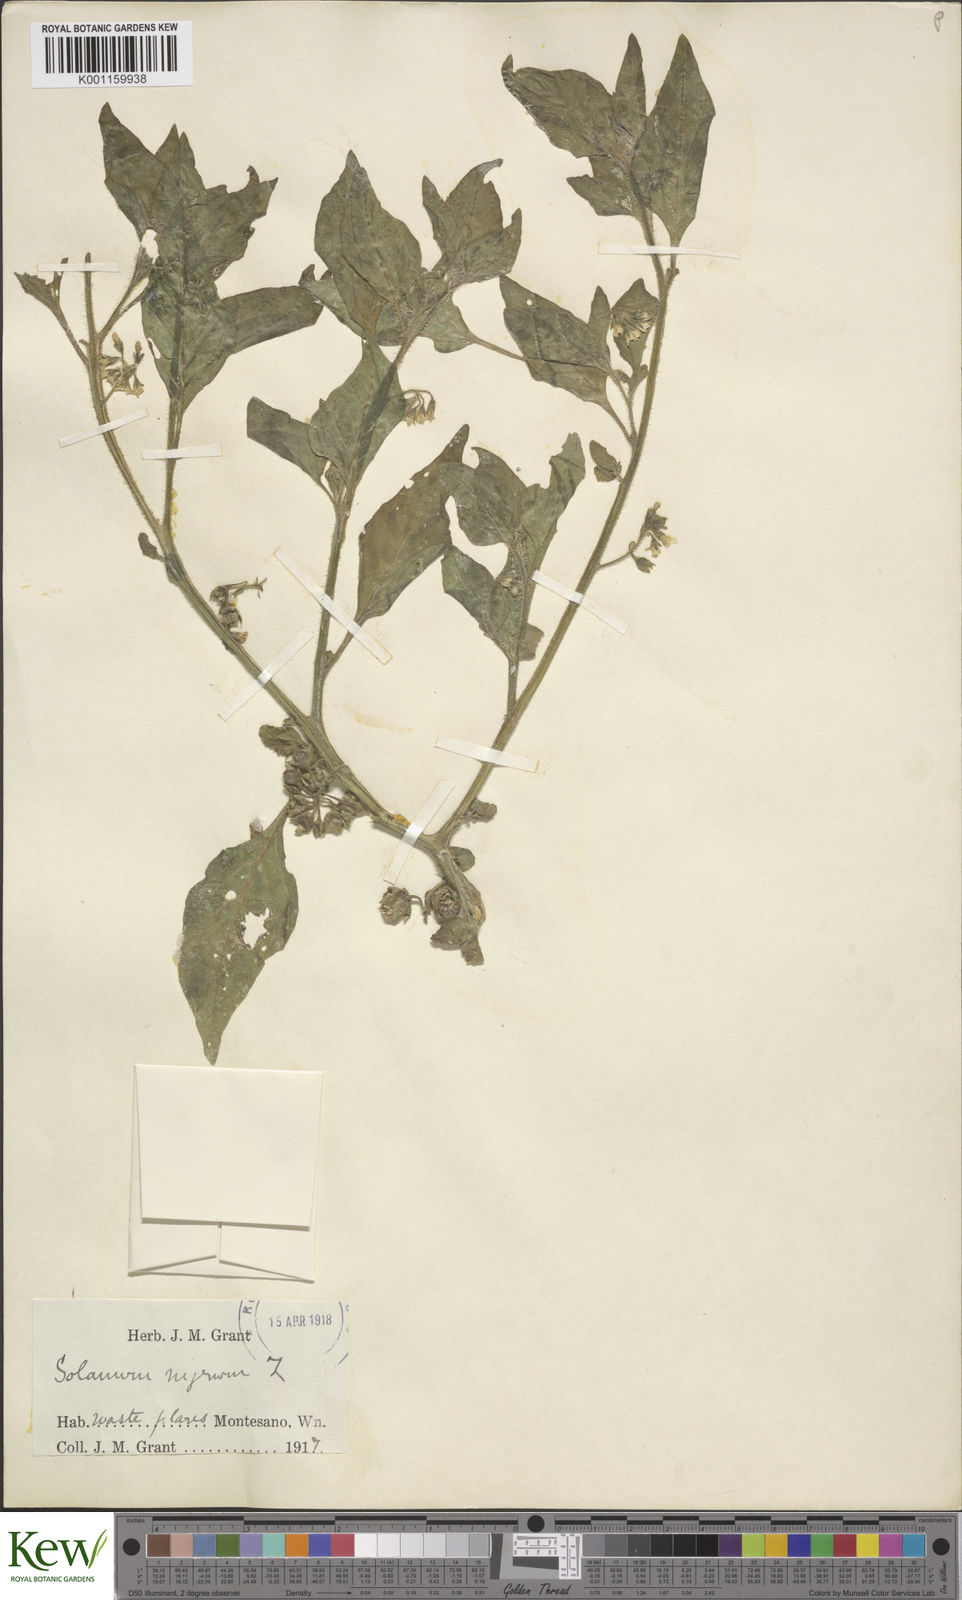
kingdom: Plantae
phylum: Tracheophyta
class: Magnoliopsida
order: Solanales
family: Solanaceae
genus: Solanum
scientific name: Solanum nitidibaccatum
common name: Hairy nightshade
